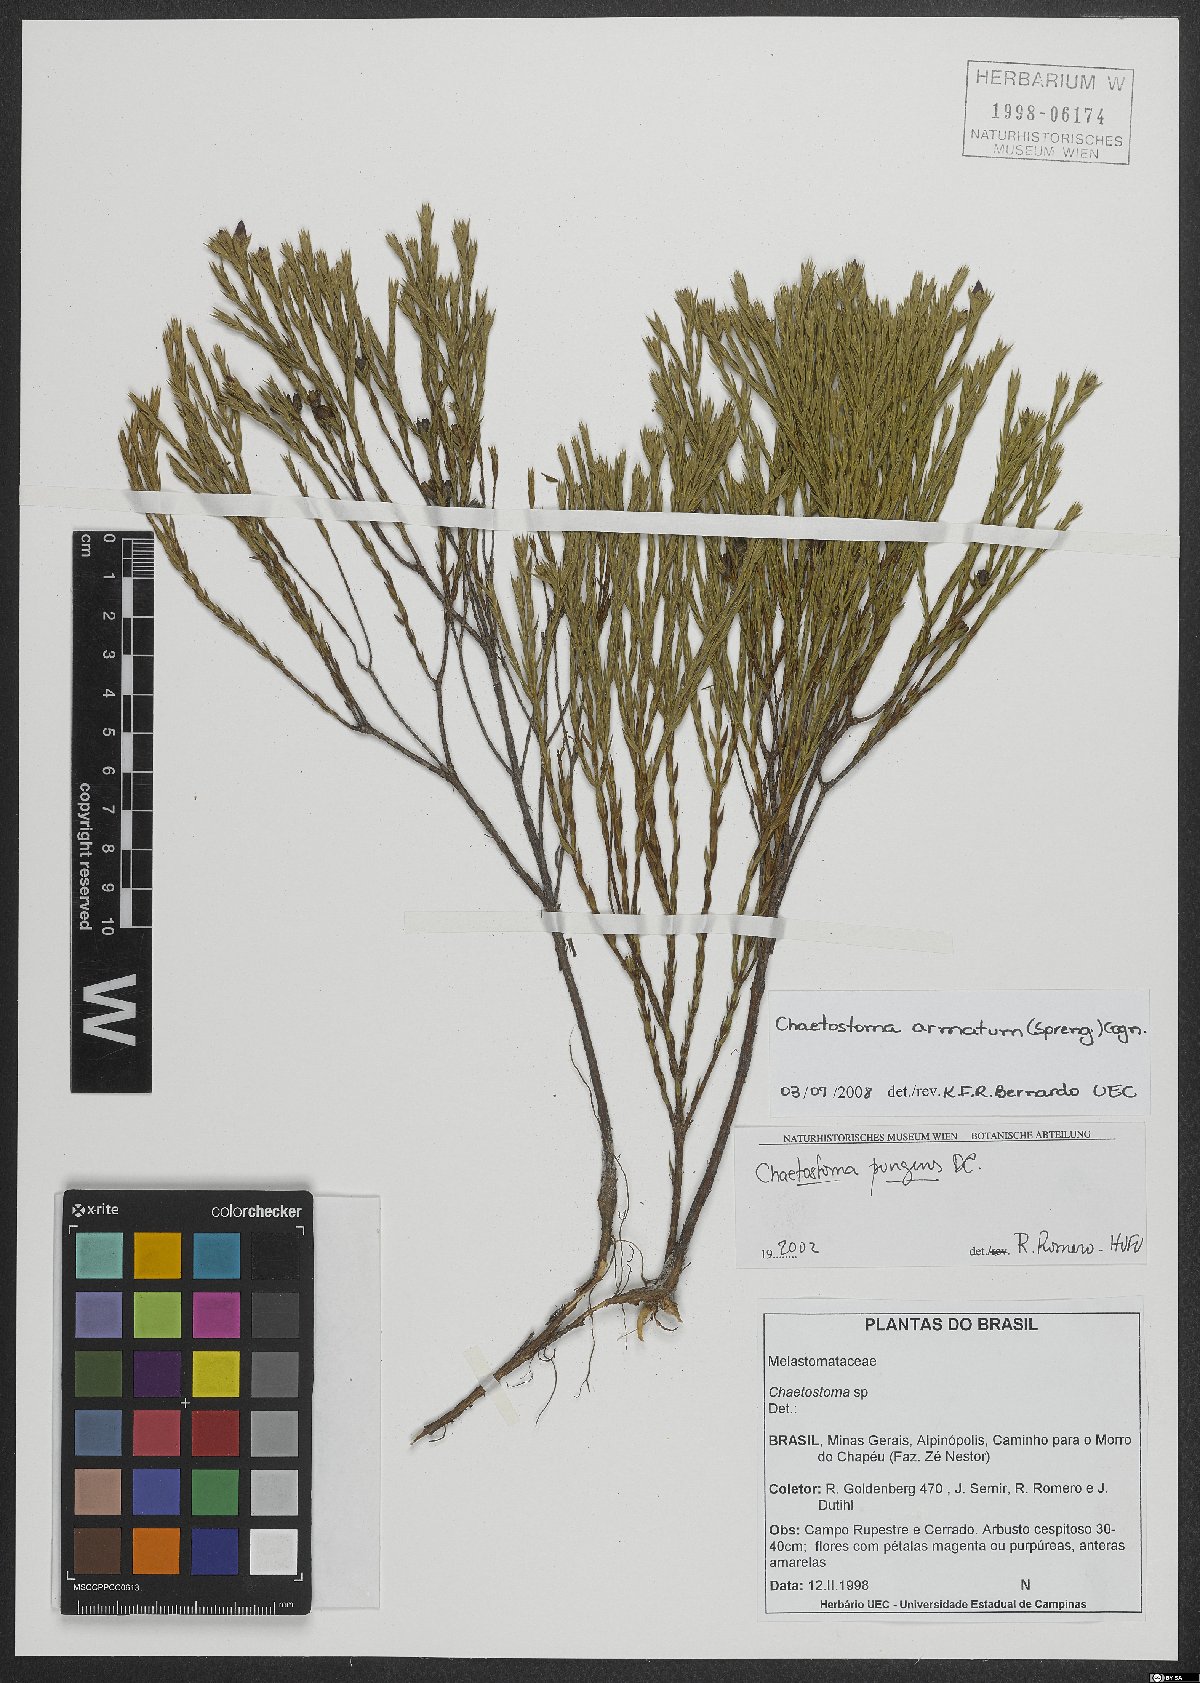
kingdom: Plantae
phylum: Tracheophyta
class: Magnoliopsida
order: Myrtales
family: Melastomataceae
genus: Microlicia
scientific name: Microlicia armata
